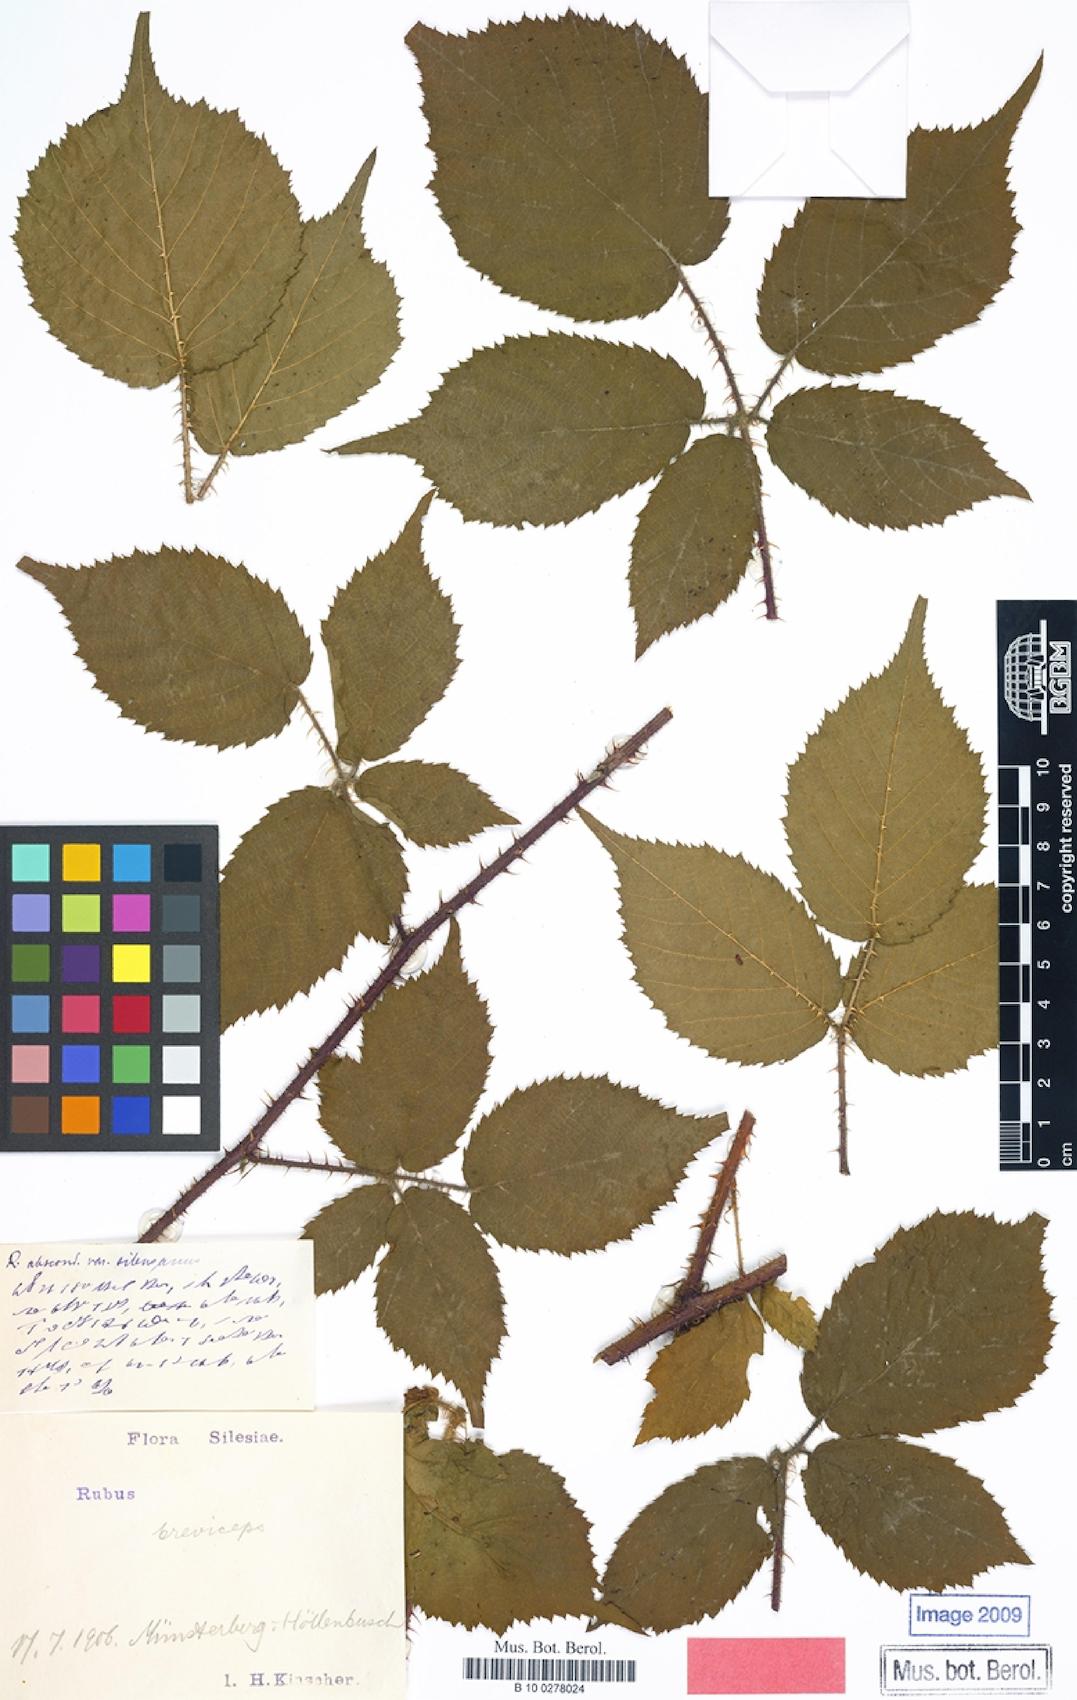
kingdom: Plantae
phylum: Tracheophyta
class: Magnoliopsida
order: Rosales
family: Rosaceae
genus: Rubus
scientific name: Rubus breviceps
